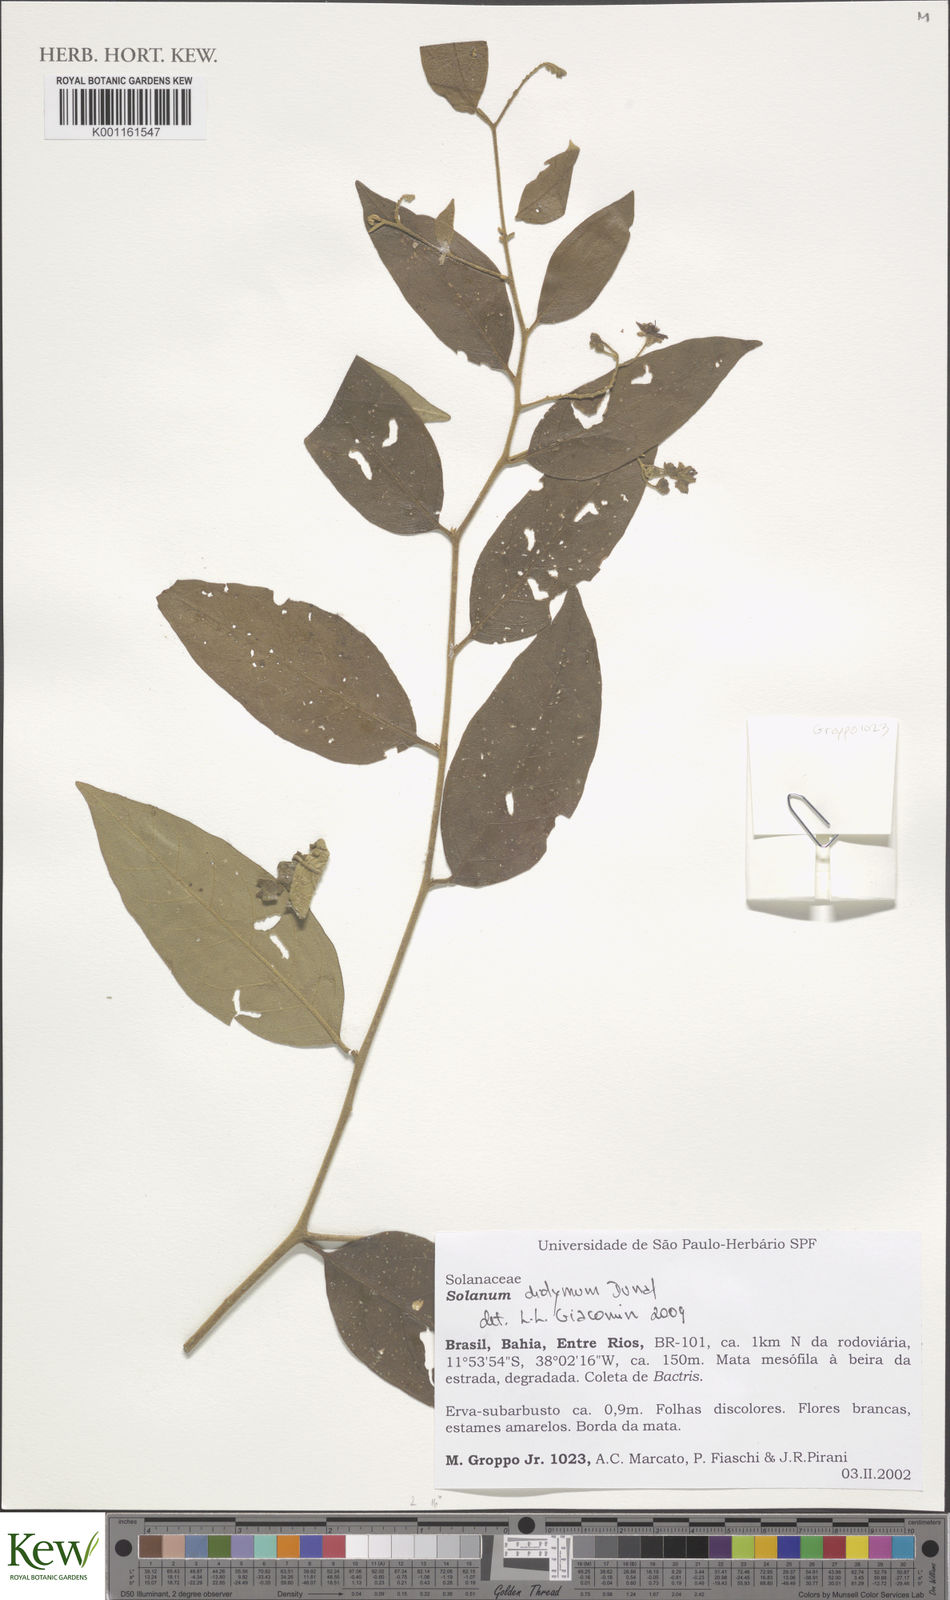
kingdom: Plantae
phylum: Tracheophyta
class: Magnoliopsida
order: Solanales
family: Solanaceae
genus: Solanum
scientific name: Solanum uncinellum
